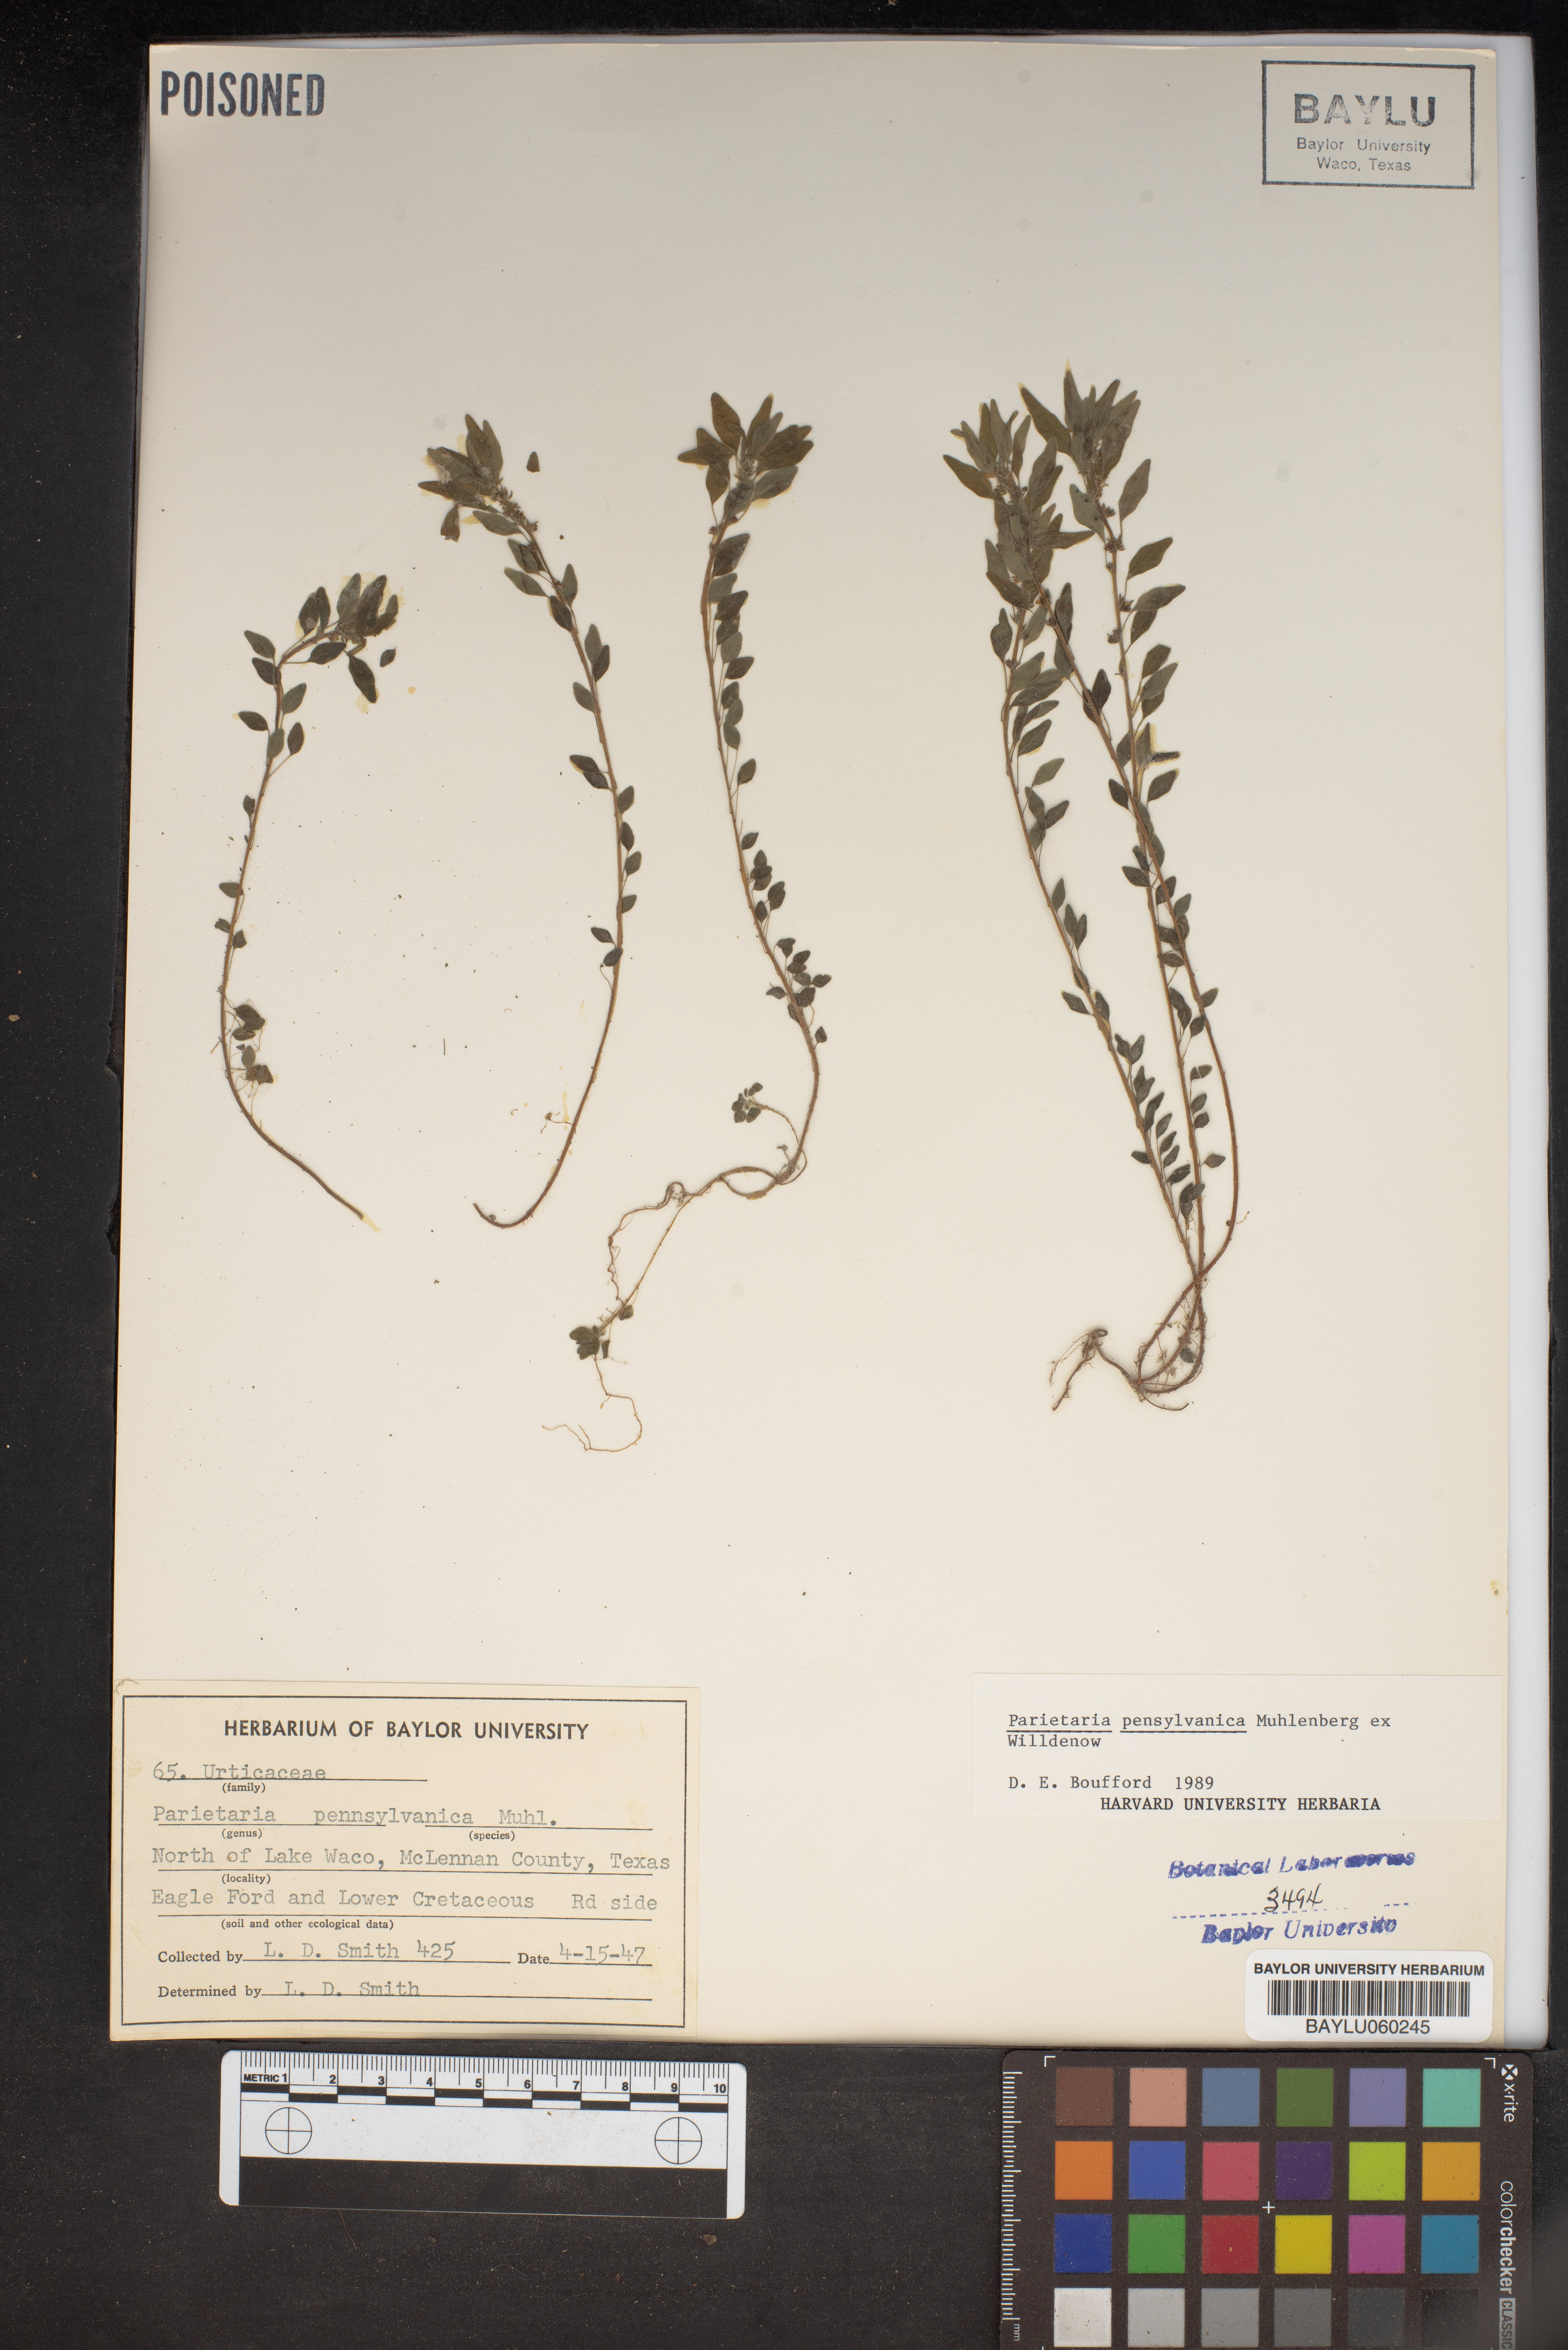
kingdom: Plantae
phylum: Tracheophyta
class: Magnoliopsida
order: Rosales
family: Urticaceae
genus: Parietaria
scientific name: Parietaria pensylvanica
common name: Pennsylvania pellitory
